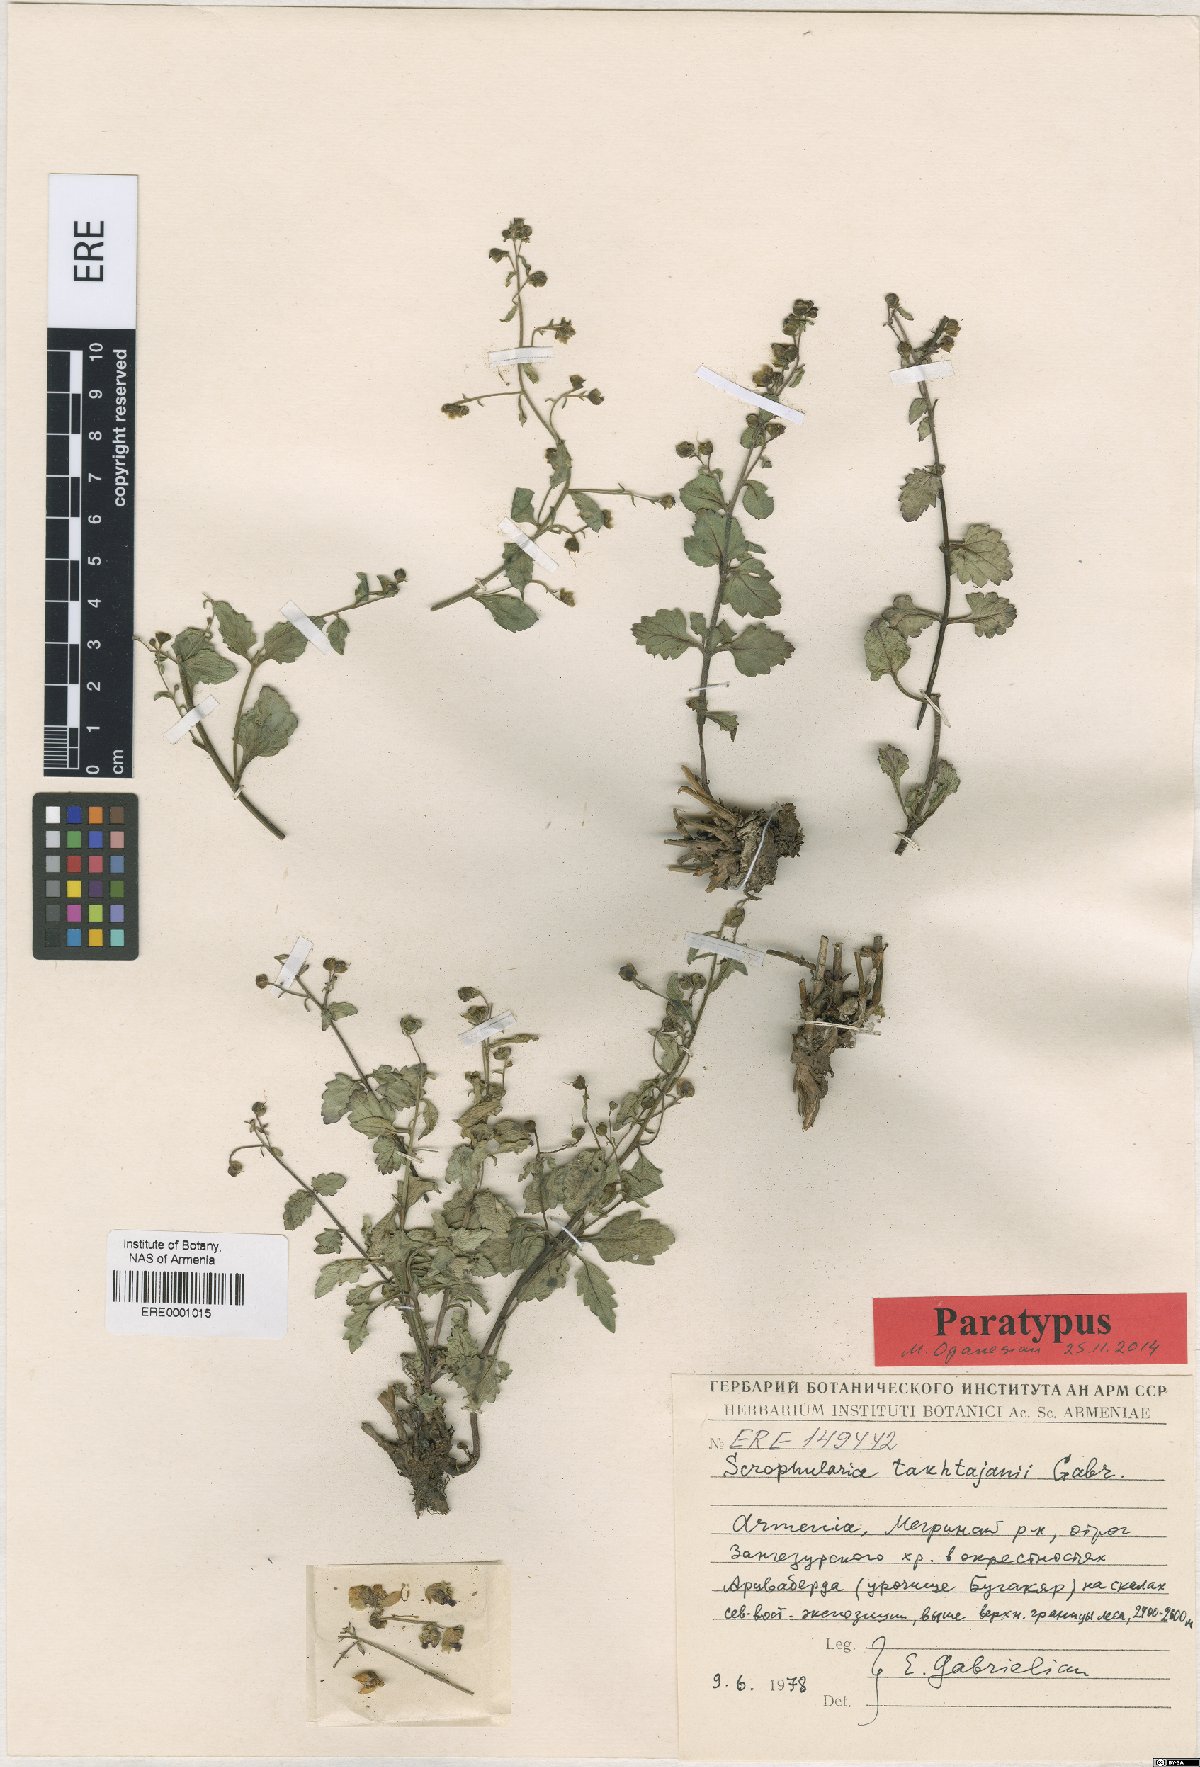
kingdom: Plantae
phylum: Tracheophyta
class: Magnoliopsida
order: Lamiales
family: Scrophulariaceae
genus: Scrophularia
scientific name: Scrophularia takhtajanii
